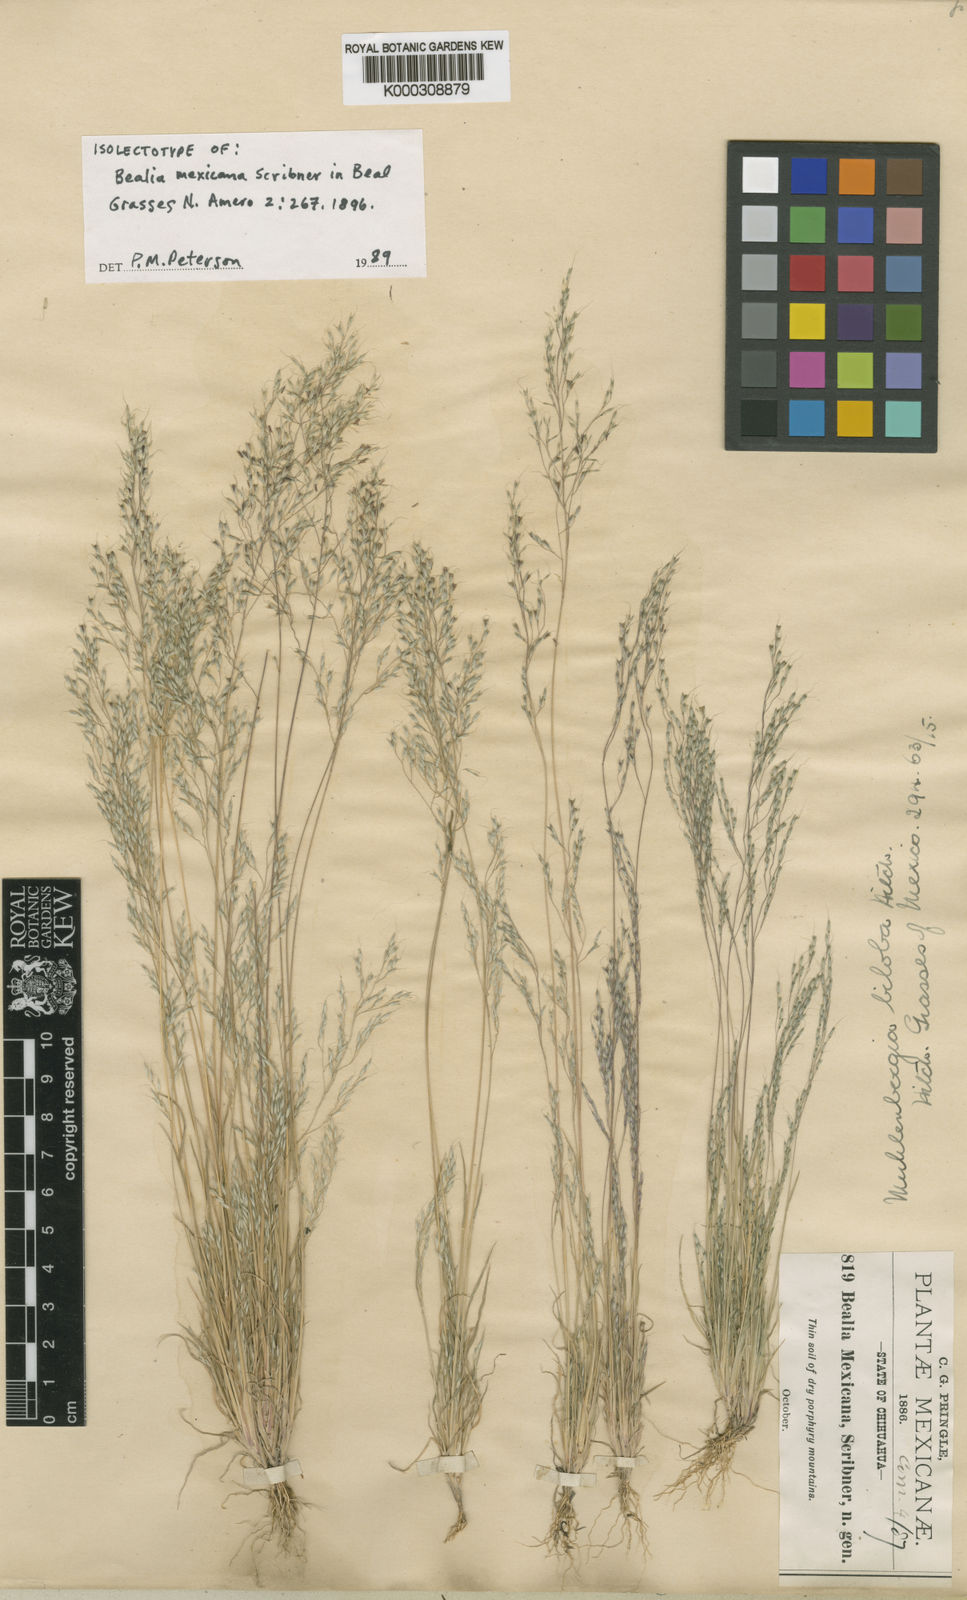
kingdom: Plantae
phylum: Tracheophyta
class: Liliopsida
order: Poales
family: Poaceae
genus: Muhlenbergia
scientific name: Muhlenbergia biloba
